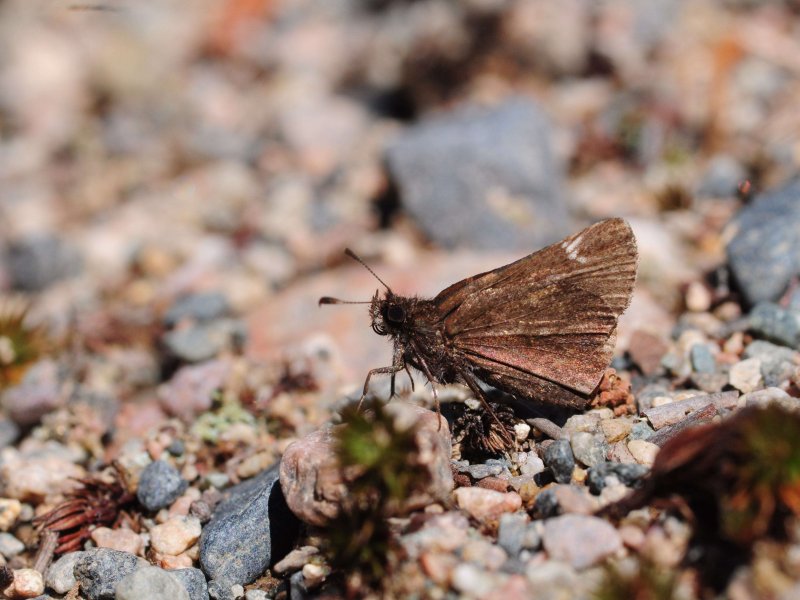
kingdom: Animalia
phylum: Arthropoda
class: Insecta
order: Lepidoptera
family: Hesperiidae
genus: Mastor
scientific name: Mastor vialis
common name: Common Roadside-Skipper
